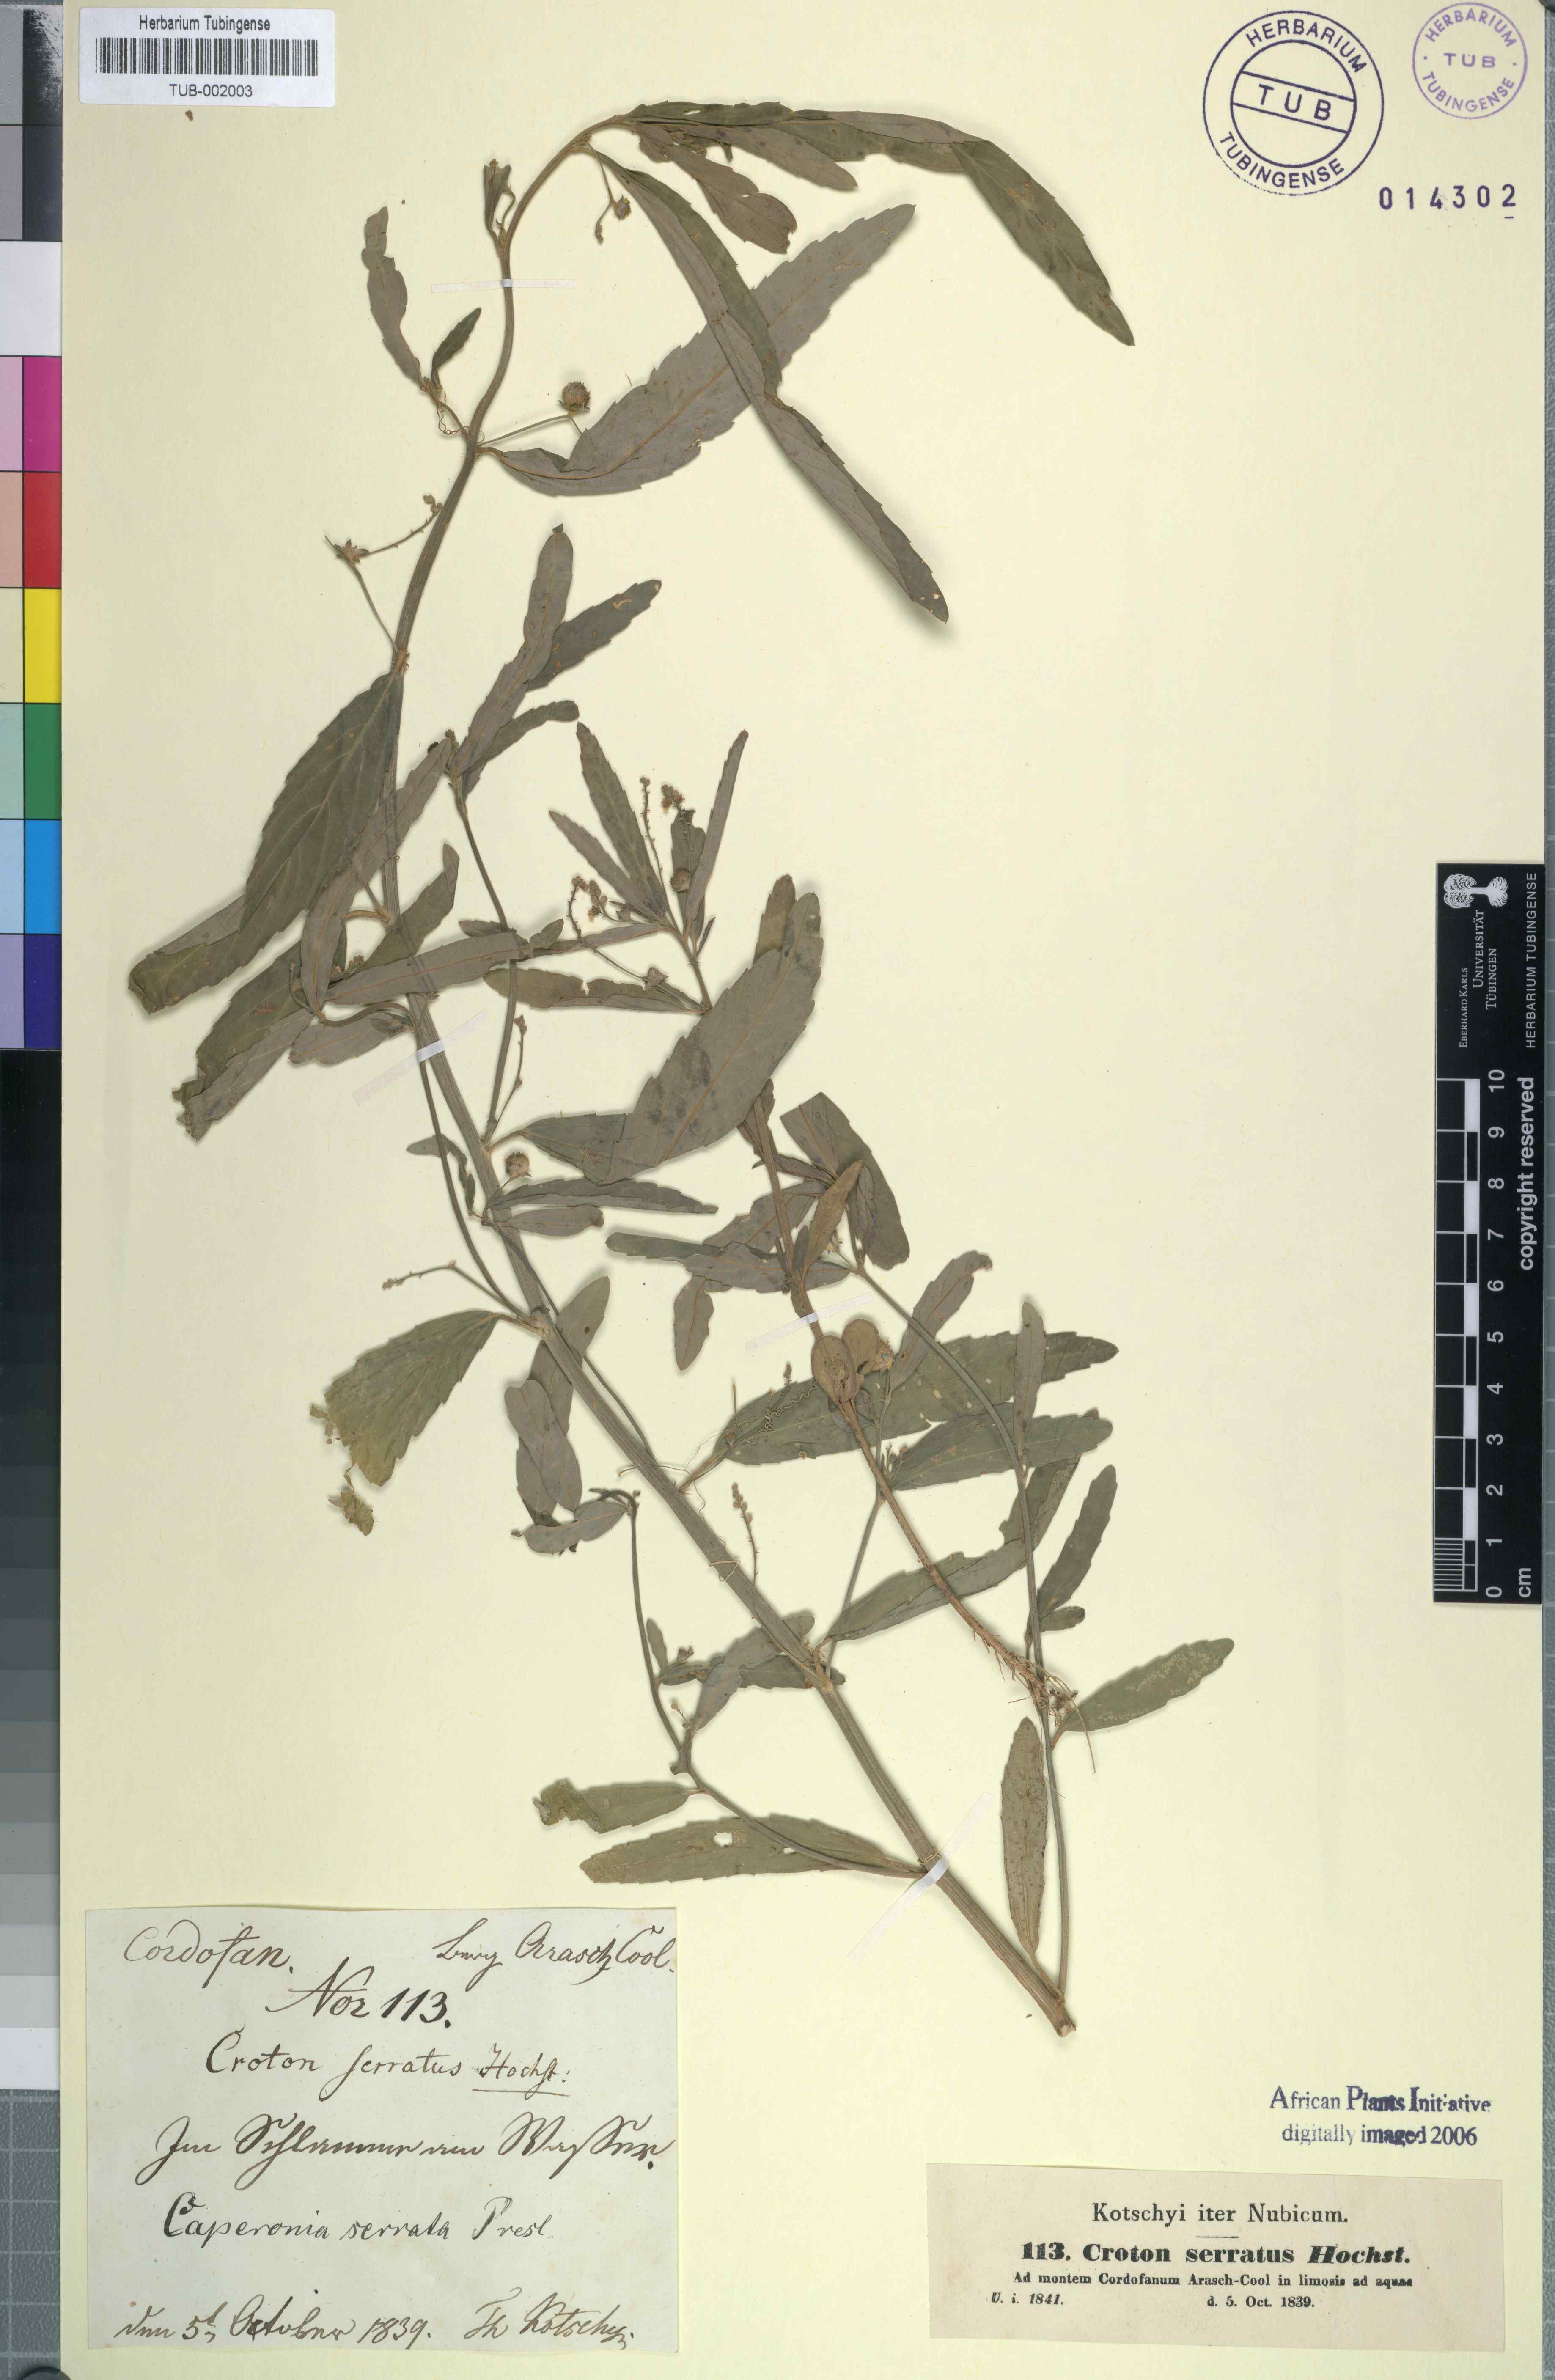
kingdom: Plantae
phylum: Tracheophyta
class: Magnoliopsida
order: Malpighiales
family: Euphorbiaceae
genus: Caperonia
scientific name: Caperonia serrata
